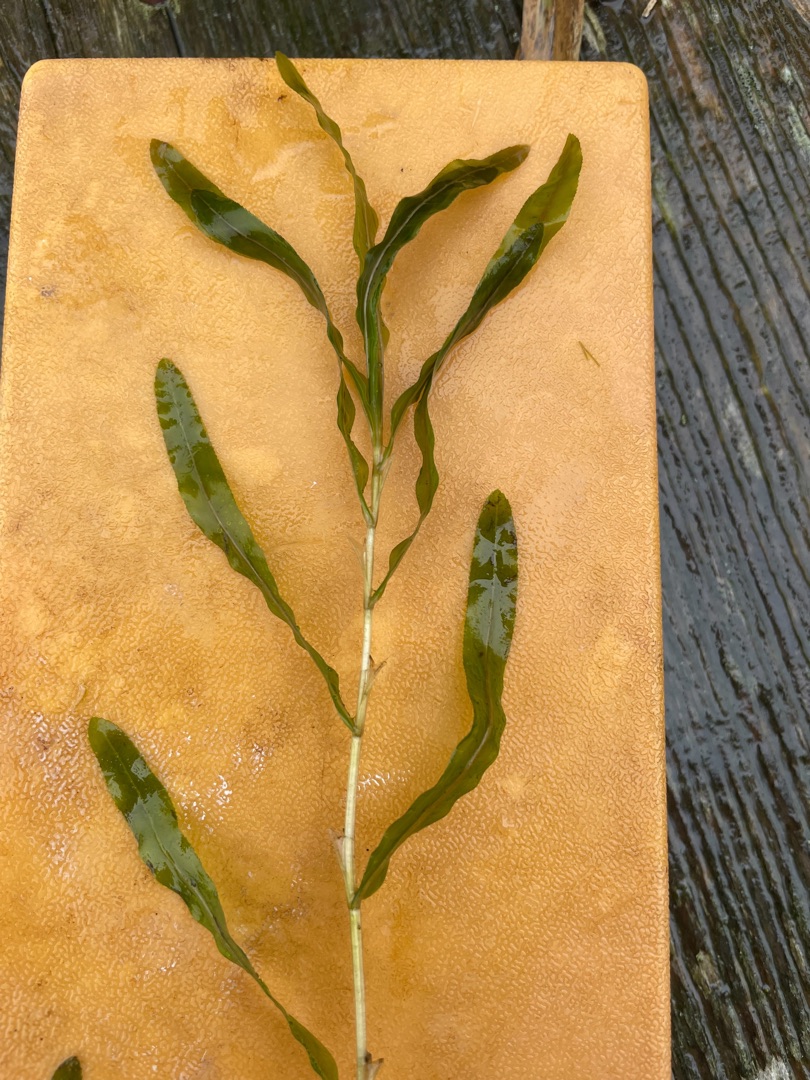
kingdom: Plantae
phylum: Tracheophyta
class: Liliopsida
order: Alismatales
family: Potamogetonaceae
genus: Potamogeton
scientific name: Potamogeton crispus
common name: Kruset vandaks
